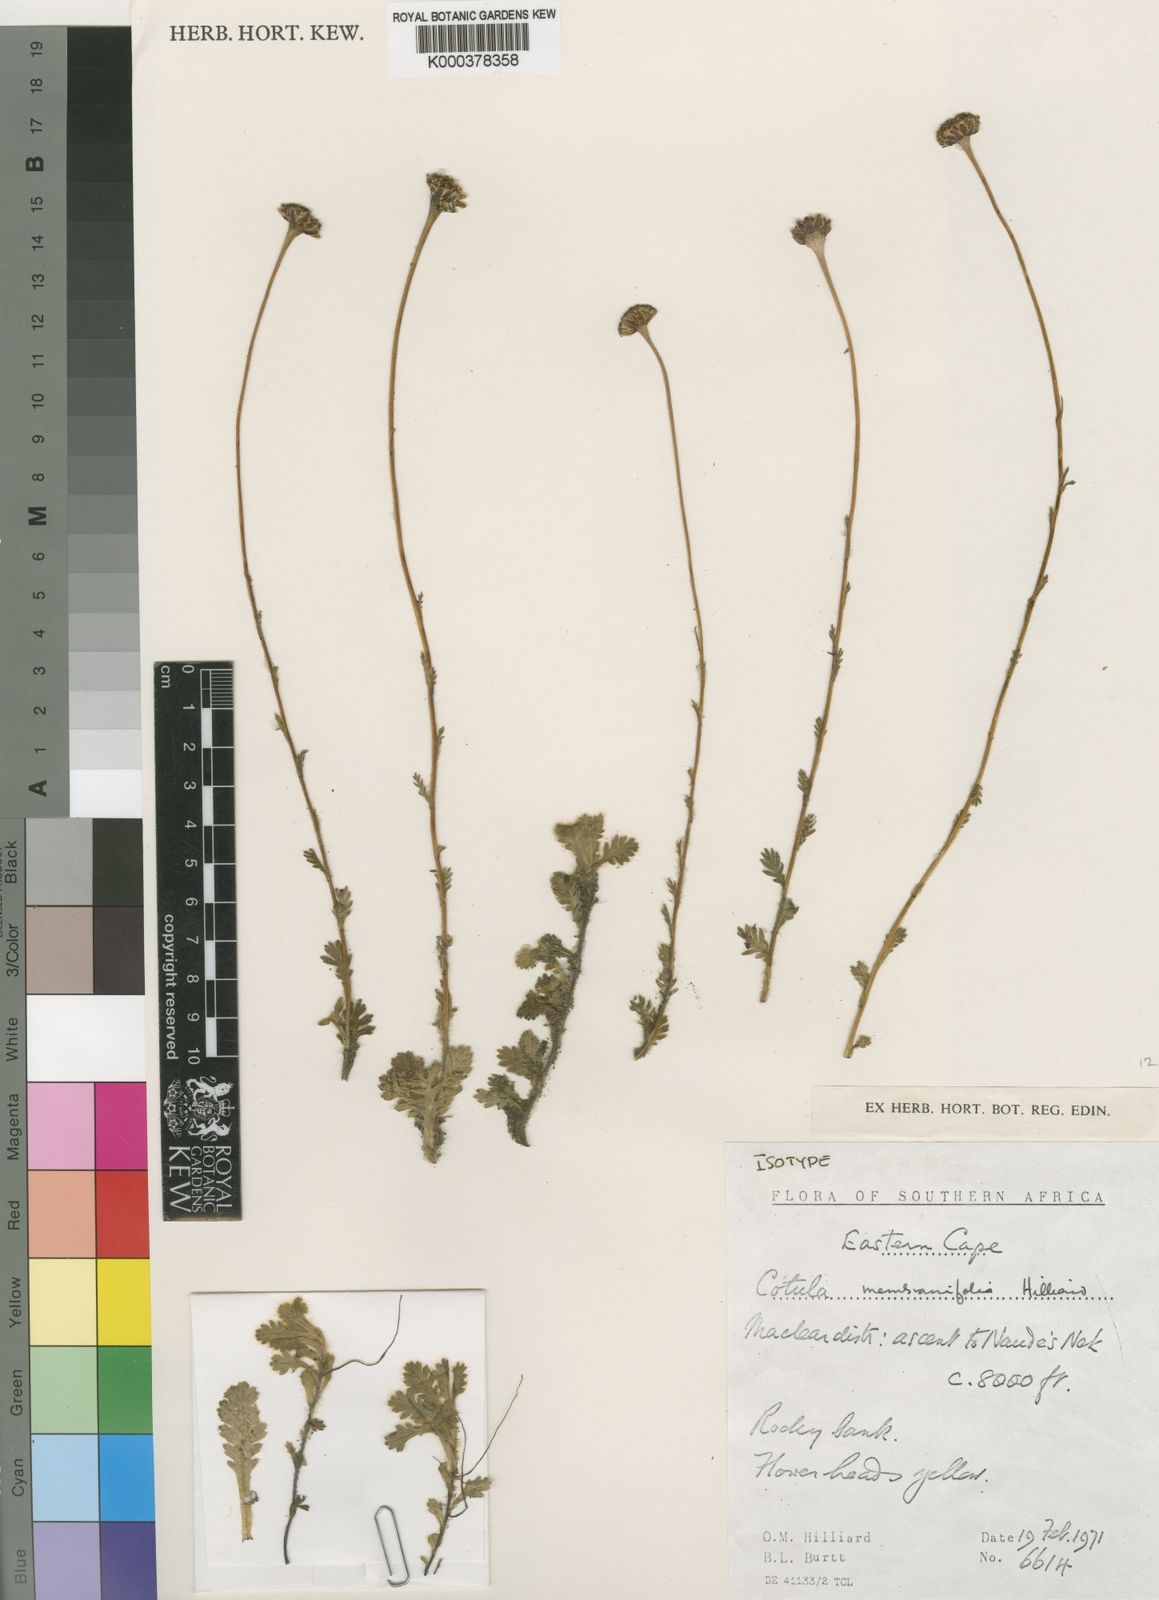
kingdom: Plantae
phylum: Tracheophyta
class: Magnoliopsida
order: Asterales
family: Asteraceae
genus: Cotula
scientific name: Cotula membranifolia
